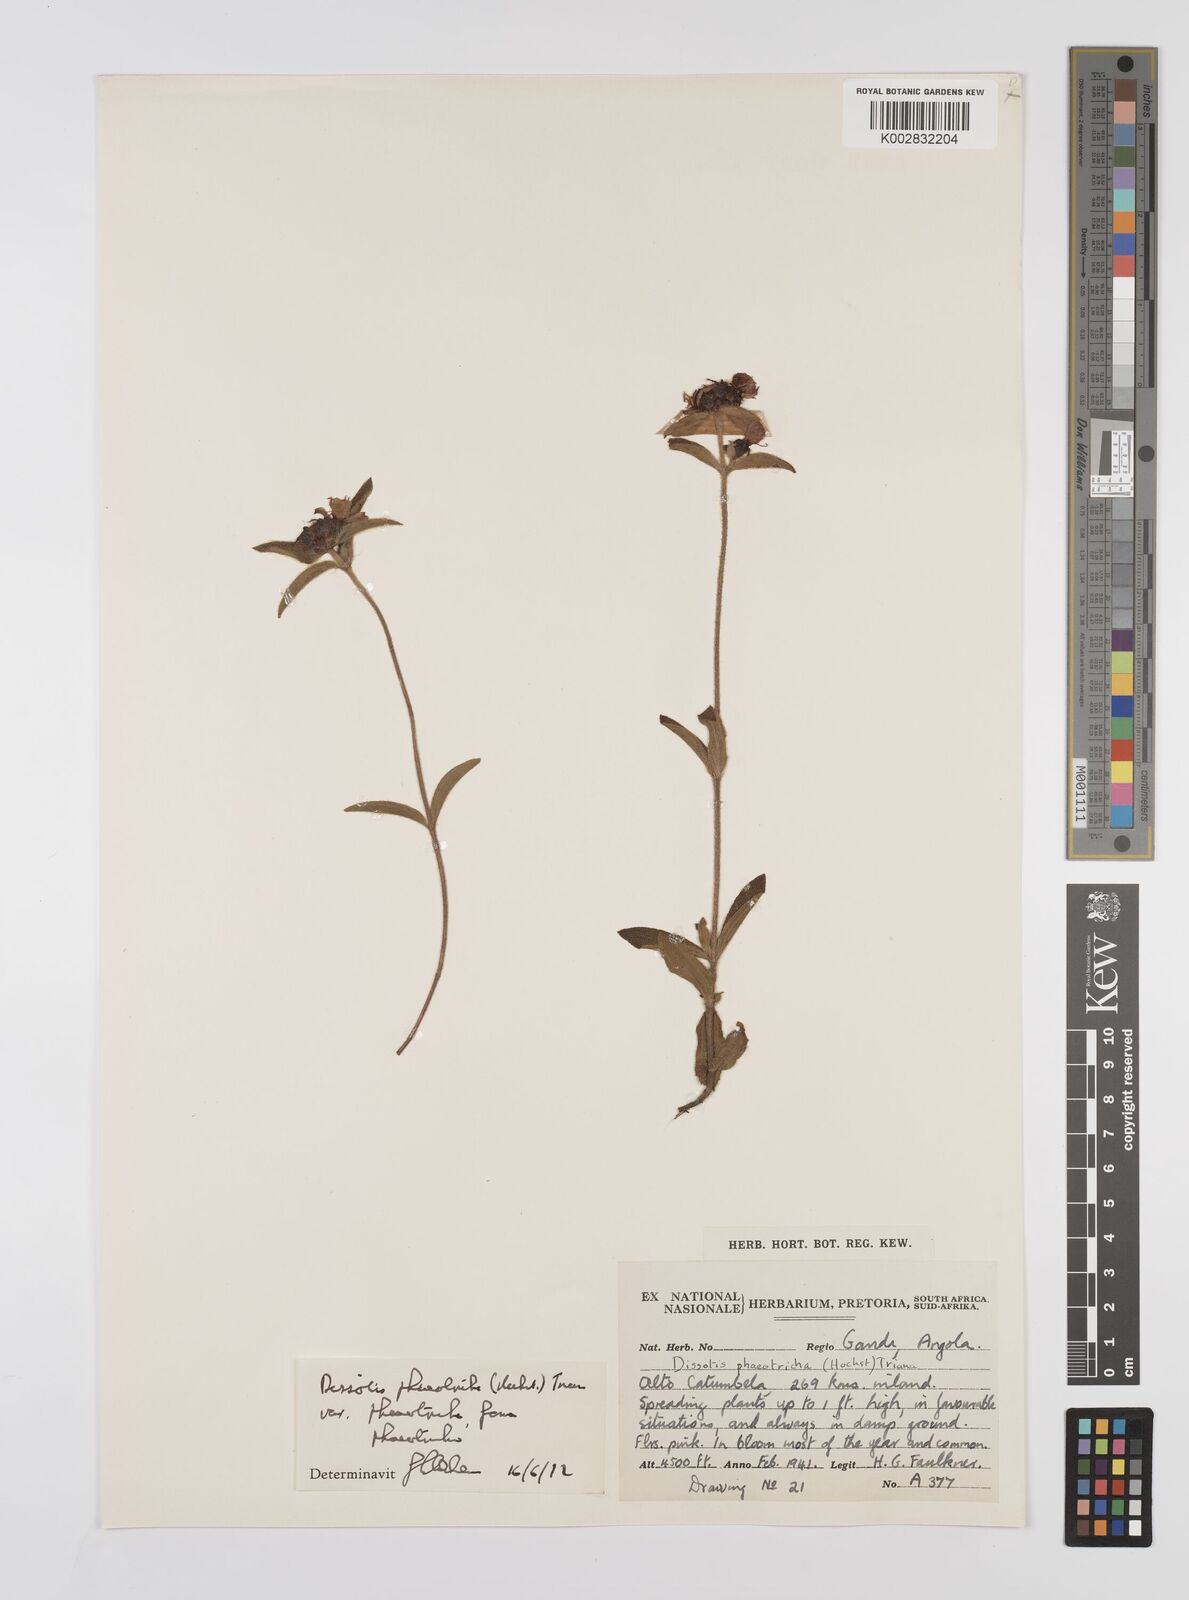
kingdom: Plantae
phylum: Tracheophyta
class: Magnoliopsida
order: Myrtales
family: Melastomataceae
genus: Antherotoma
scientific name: Antherotoma phaeotricha
